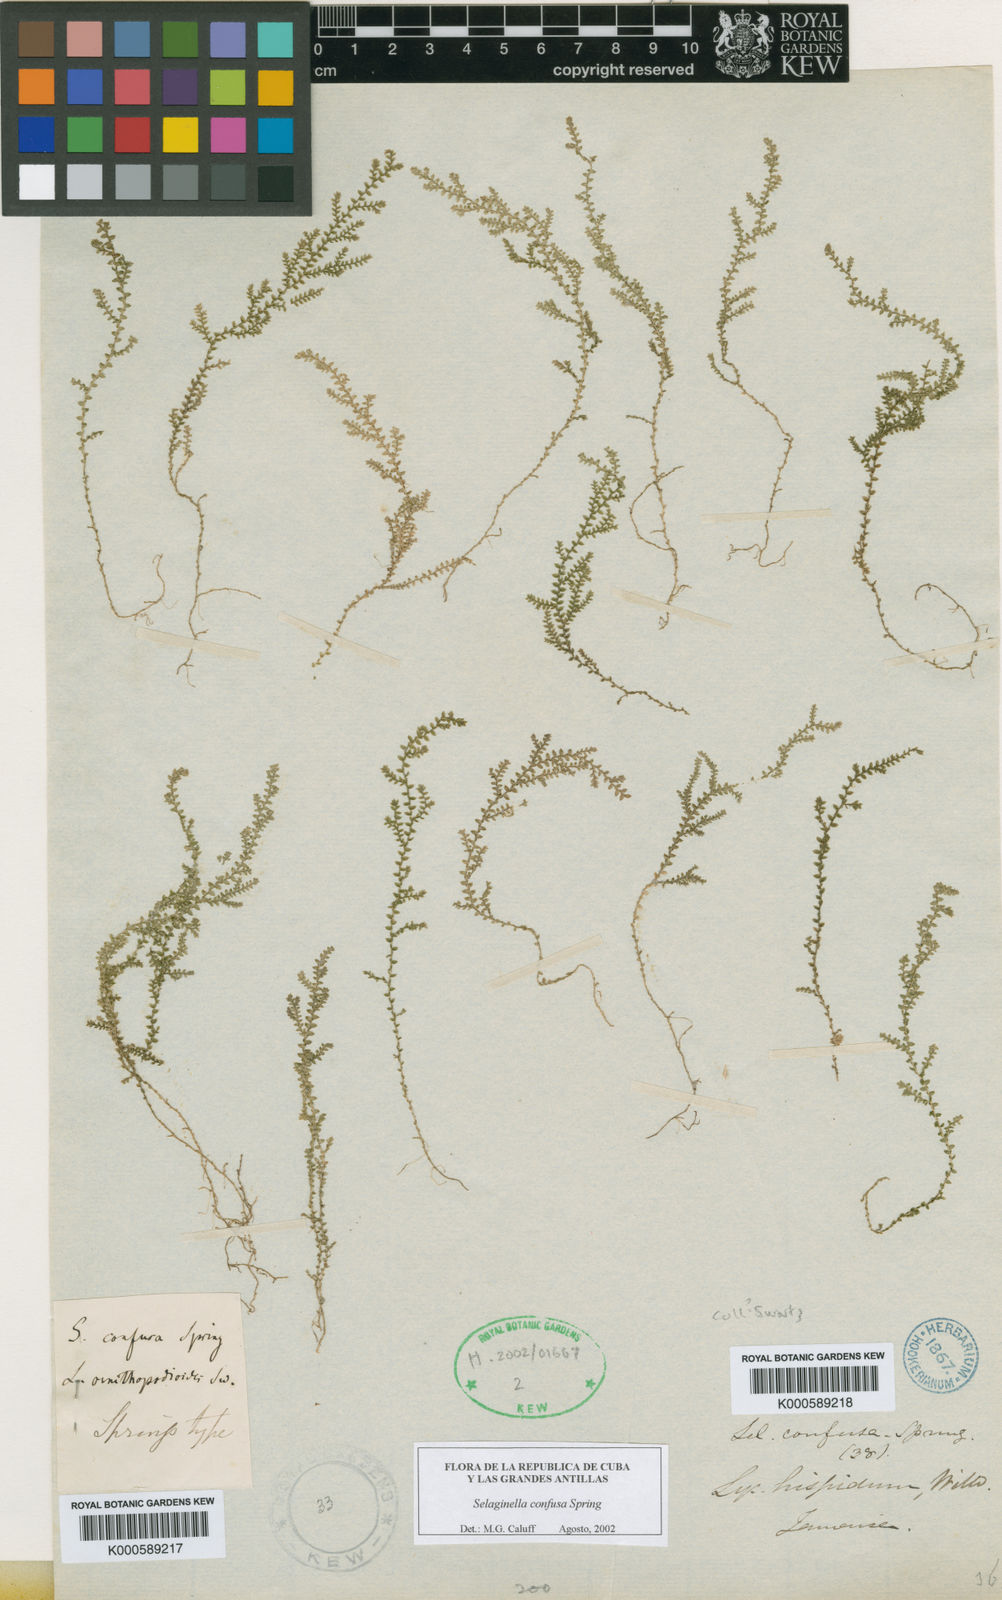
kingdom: Plantae
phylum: Tracheophyta
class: Lycopodiopsida
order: Selaginellales
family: Selaginellaceae
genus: Selaginella
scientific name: Selaginella confusa
